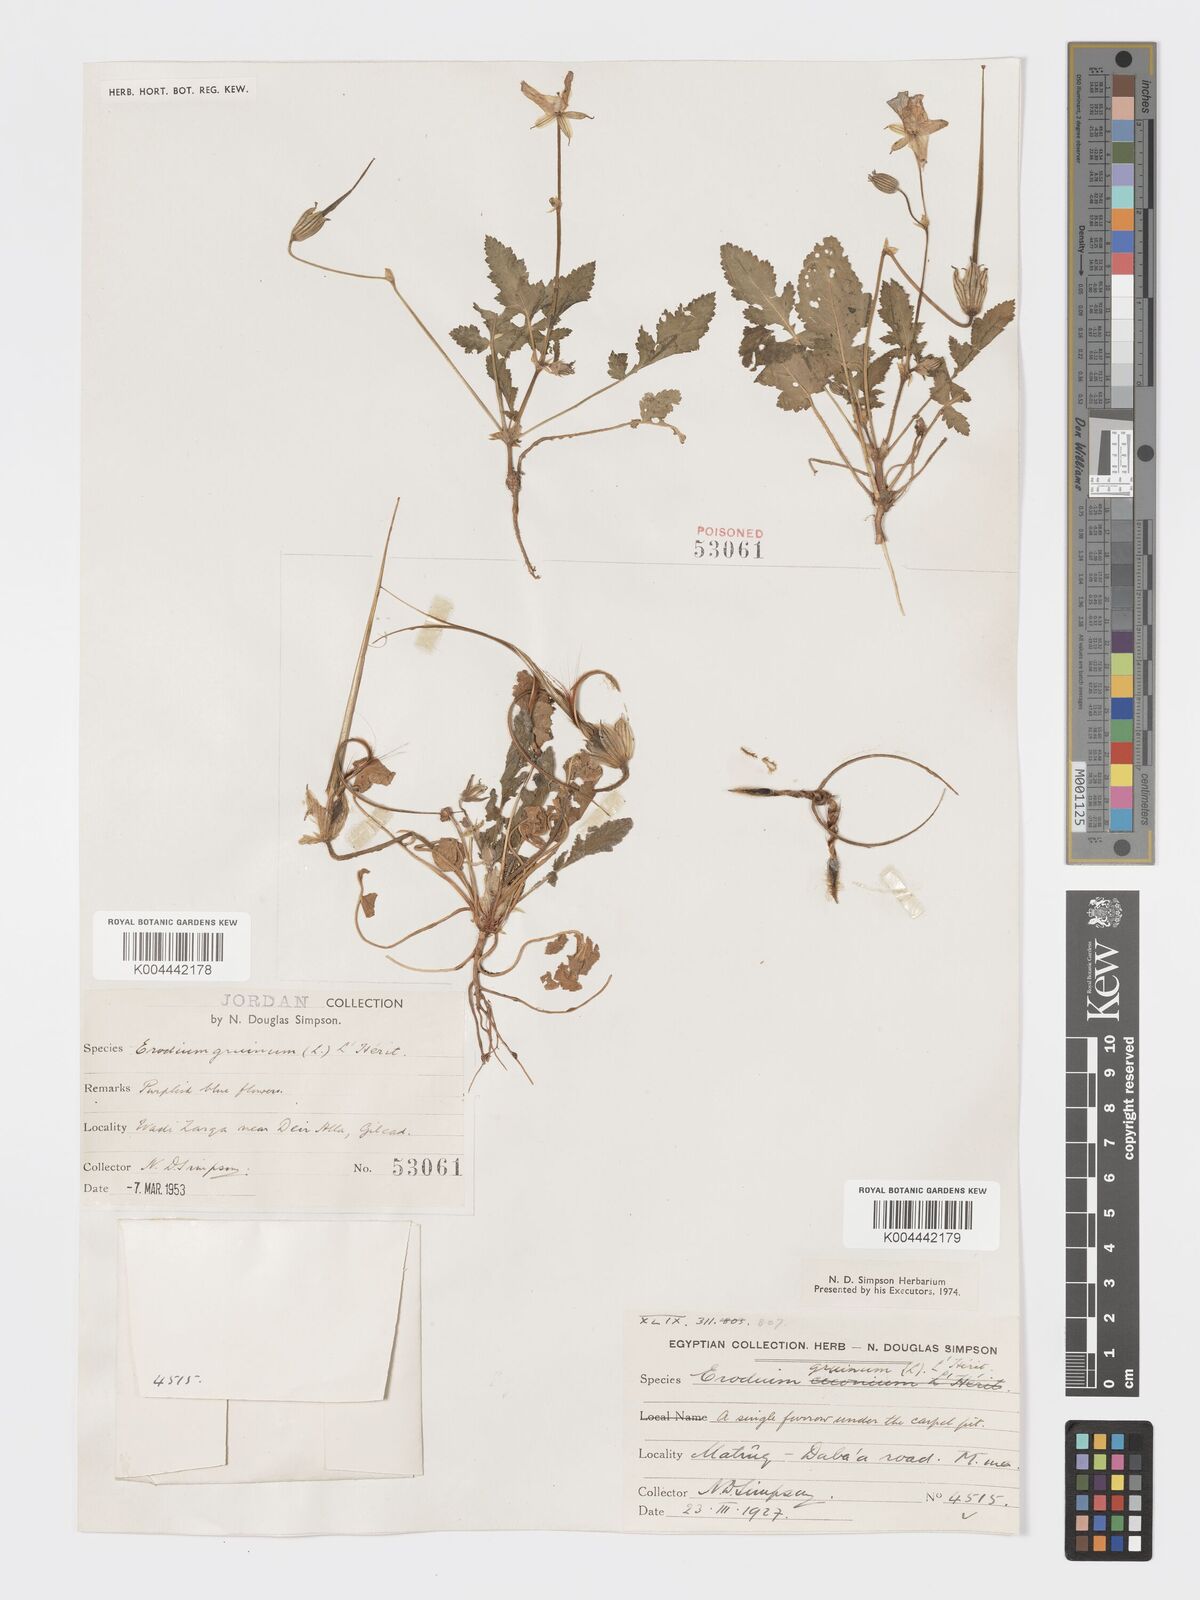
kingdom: Plantae
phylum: Tracheophyta
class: Magnoliopsida
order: Geraniales
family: Geraniaceae
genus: Erodium
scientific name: Erodium gruinum
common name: Iranian stork's bill
